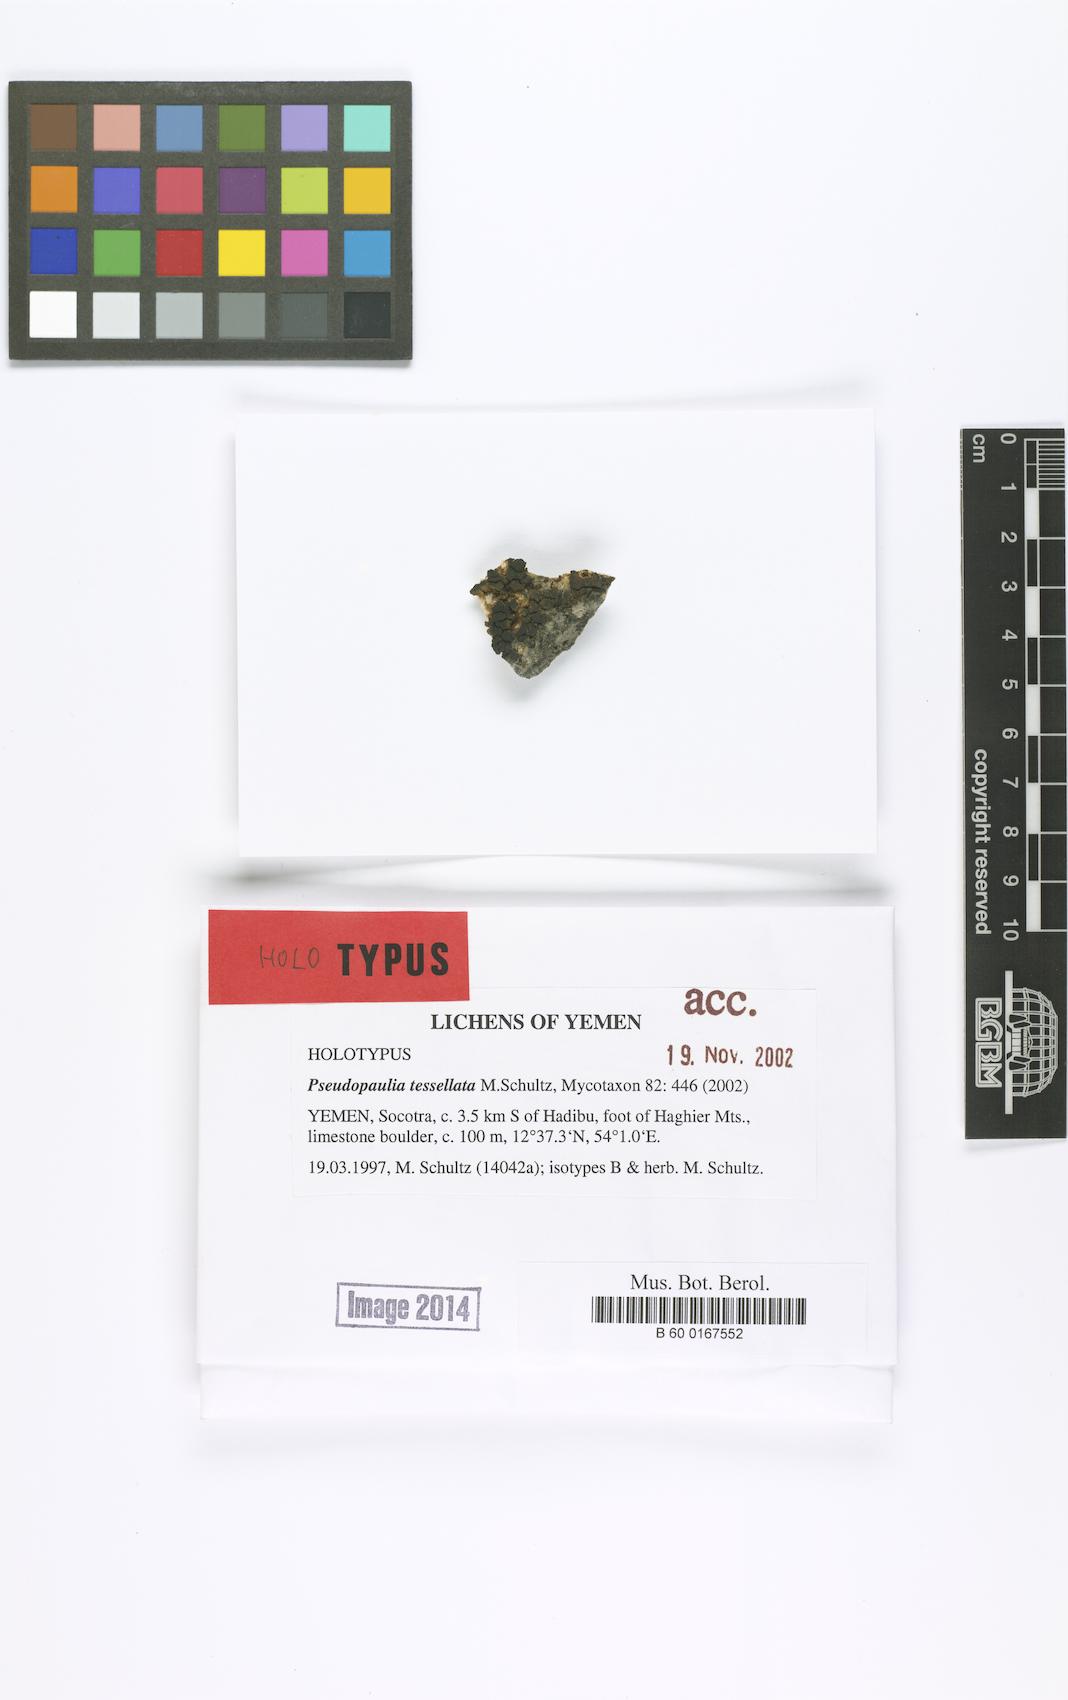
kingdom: Fungi
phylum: Ascomycota
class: Lichinomycetes
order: Lichinales
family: Lichinaceae
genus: Pseudopaulia
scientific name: Pseudopaulia tessellata
